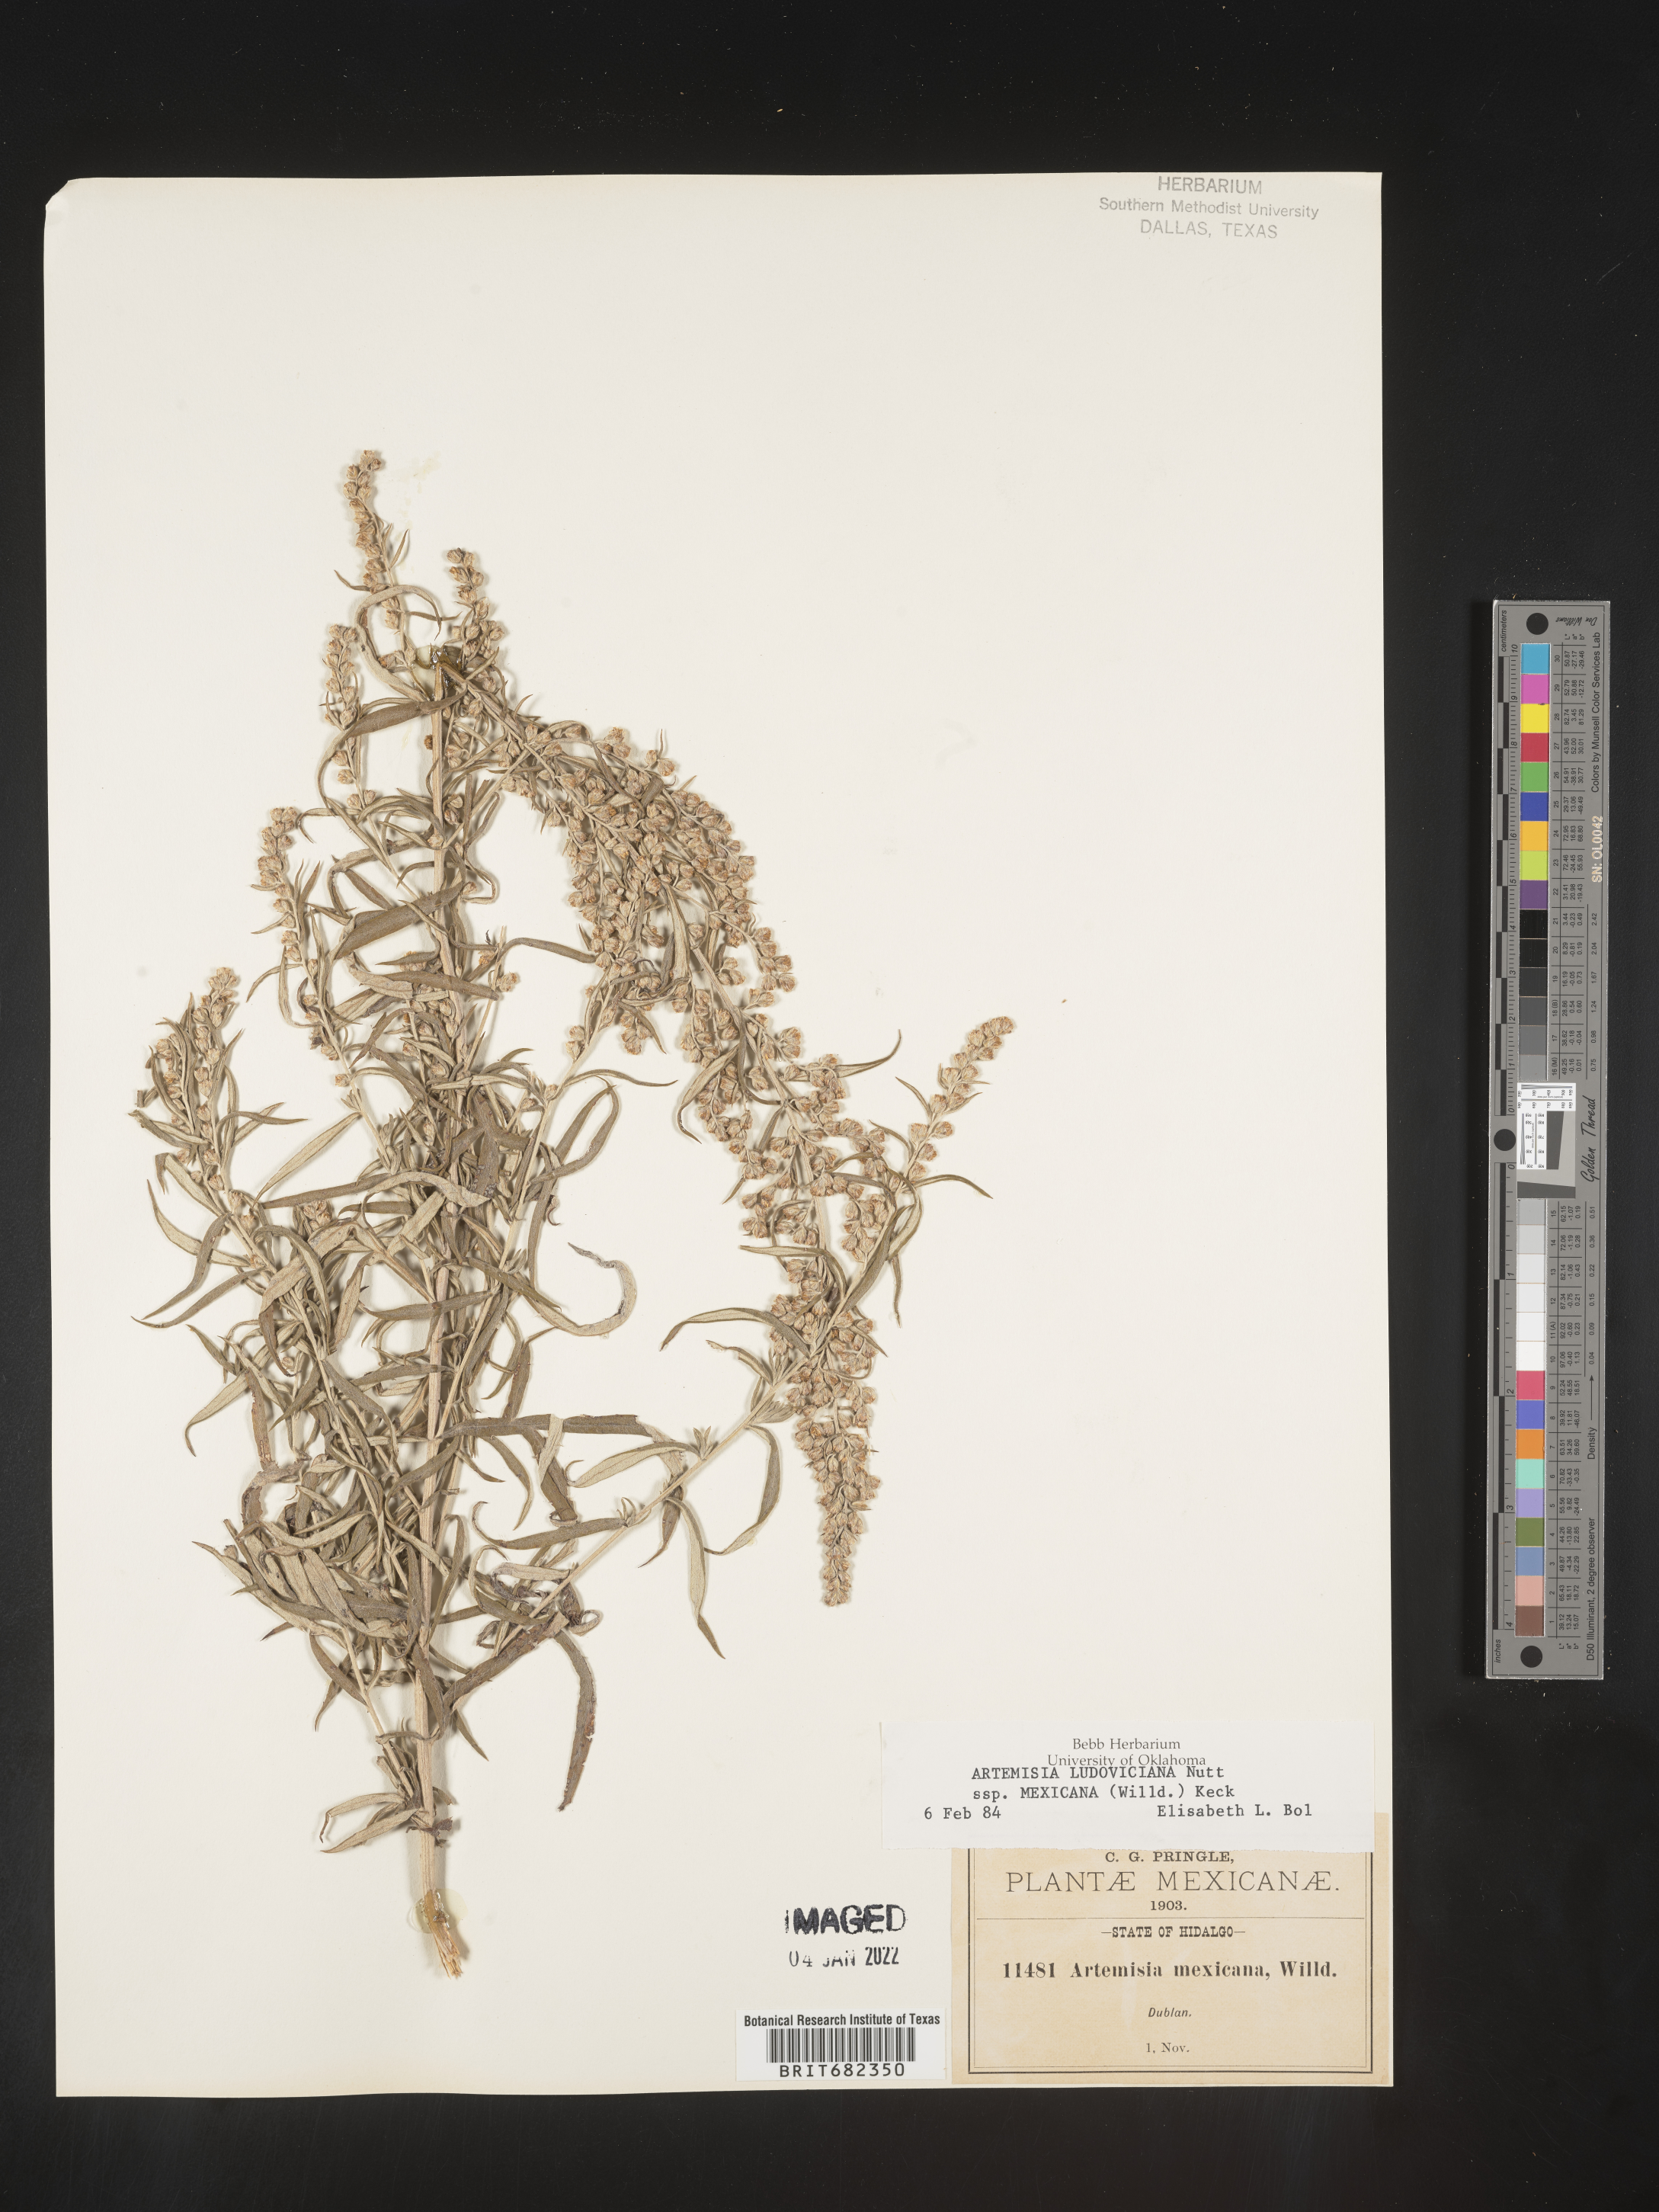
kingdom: Plantae
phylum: Tracheophyta
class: Magnoliopsida
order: Asterales
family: Asteraceae
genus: Artemisia
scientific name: Artemisia
